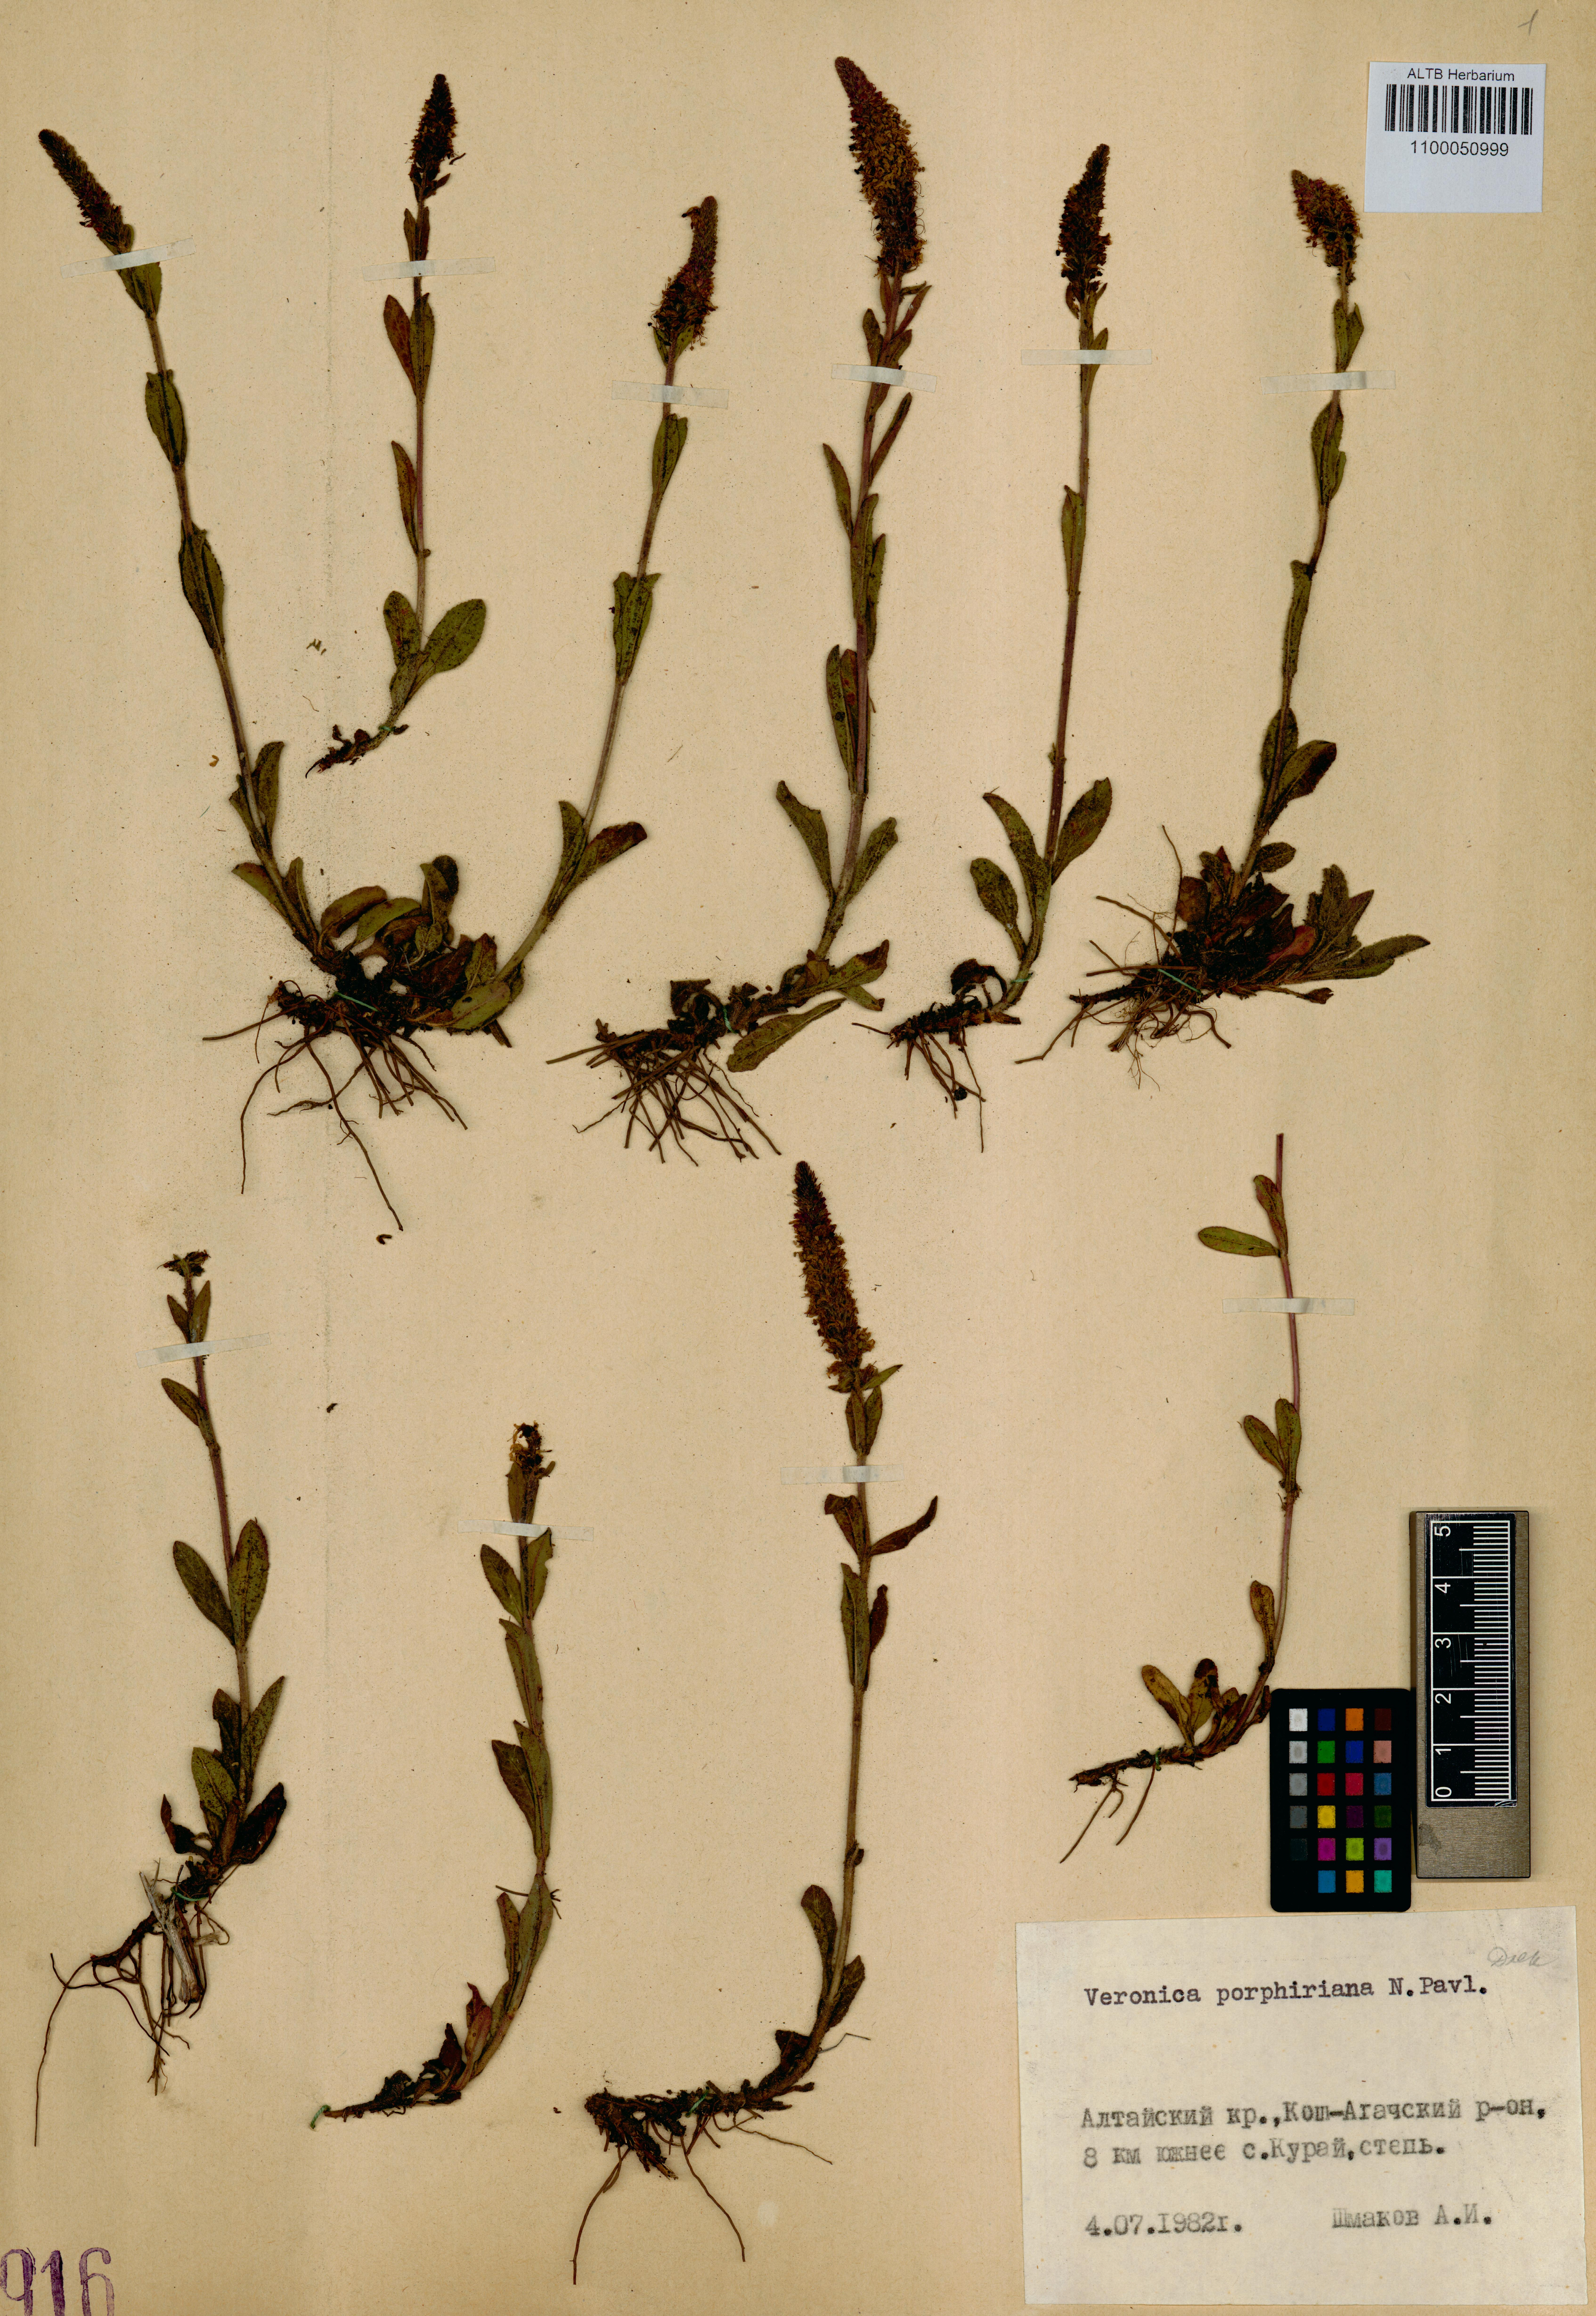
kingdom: Plantae
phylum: Tracheophyta
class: Magnoliopsida
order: Lamiales
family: Plantaginaceae
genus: Veronica
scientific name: Veronica porphyriana
